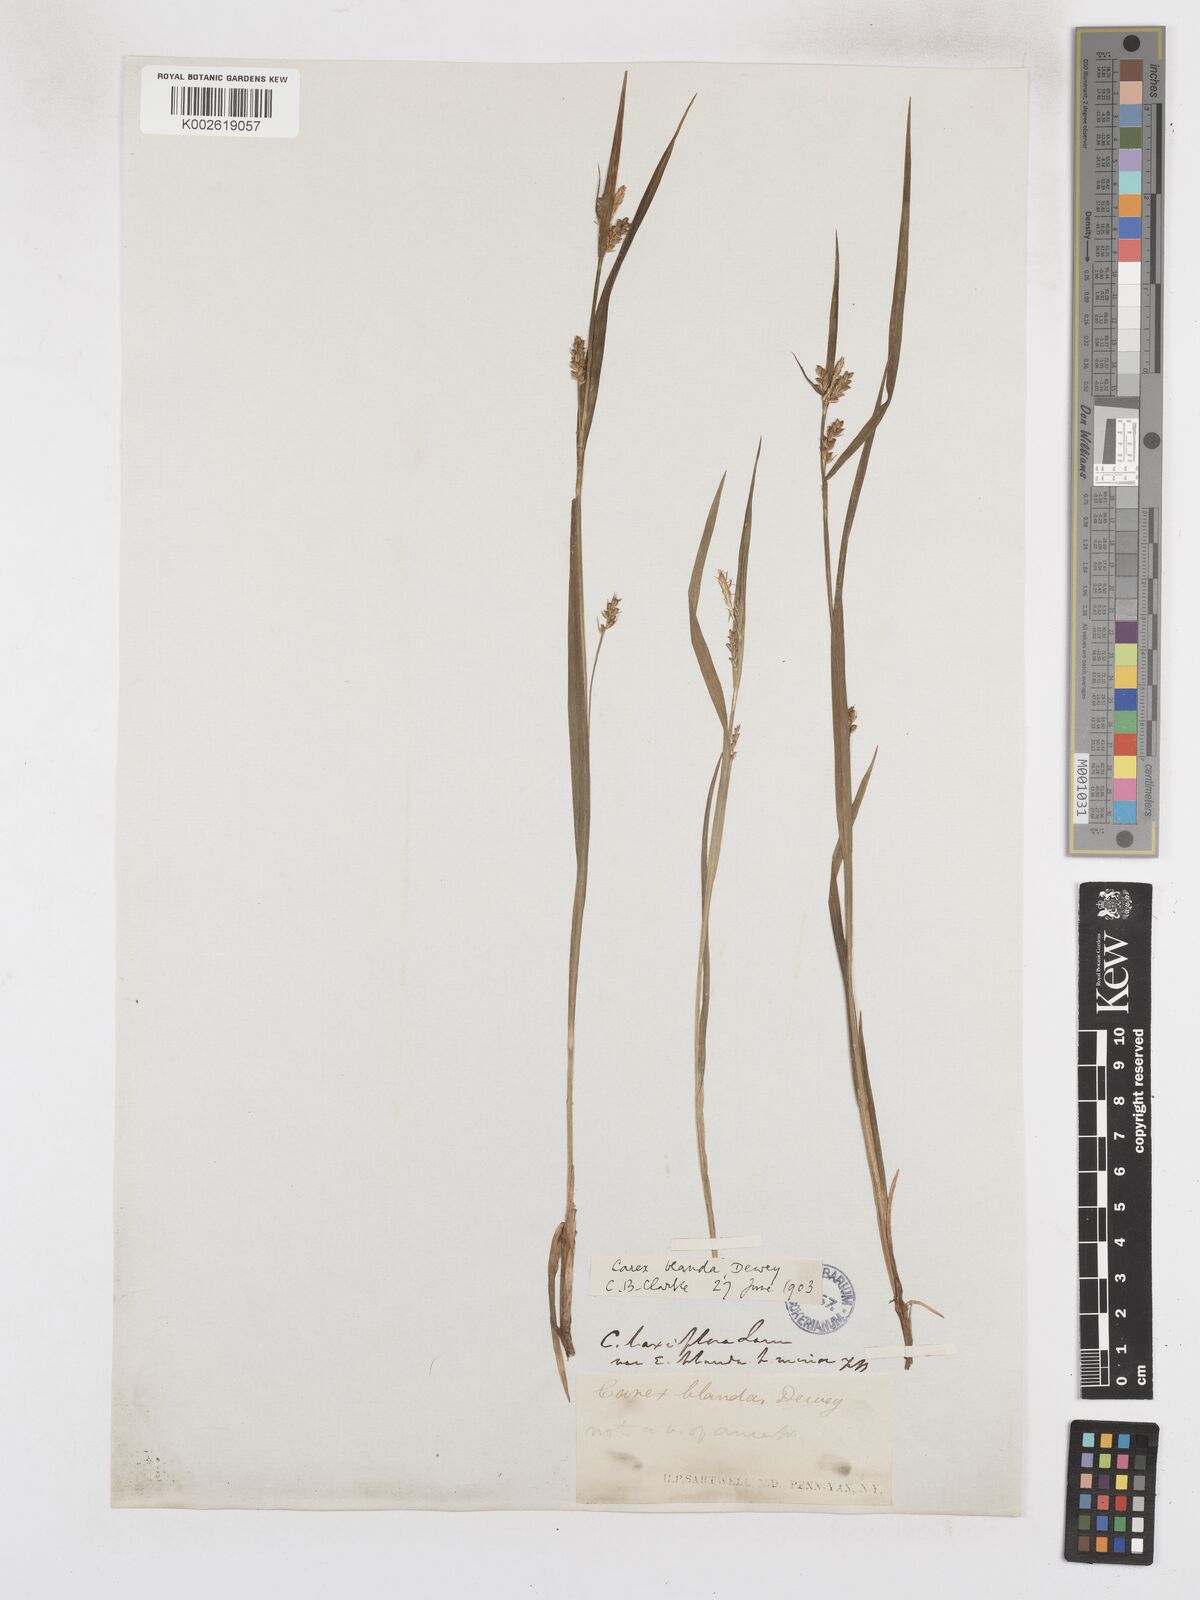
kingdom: Plantae
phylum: Tracheophyta
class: Liliopsida
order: Poales
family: Cyperaceae
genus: Carex
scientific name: Carex blanda
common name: Bland sedge
